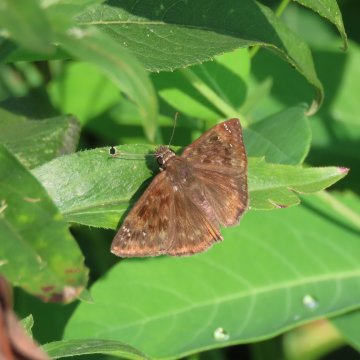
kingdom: Animalia
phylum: Arthropoda
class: Insecta
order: Lepidoptera
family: Hesperiidae
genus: Erynnis
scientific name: Erynnis
